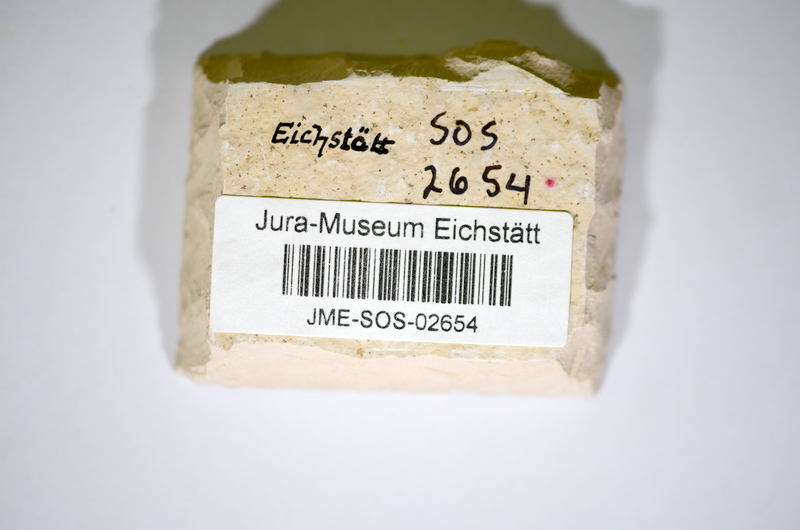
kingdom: Animalia
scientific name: Animalia
